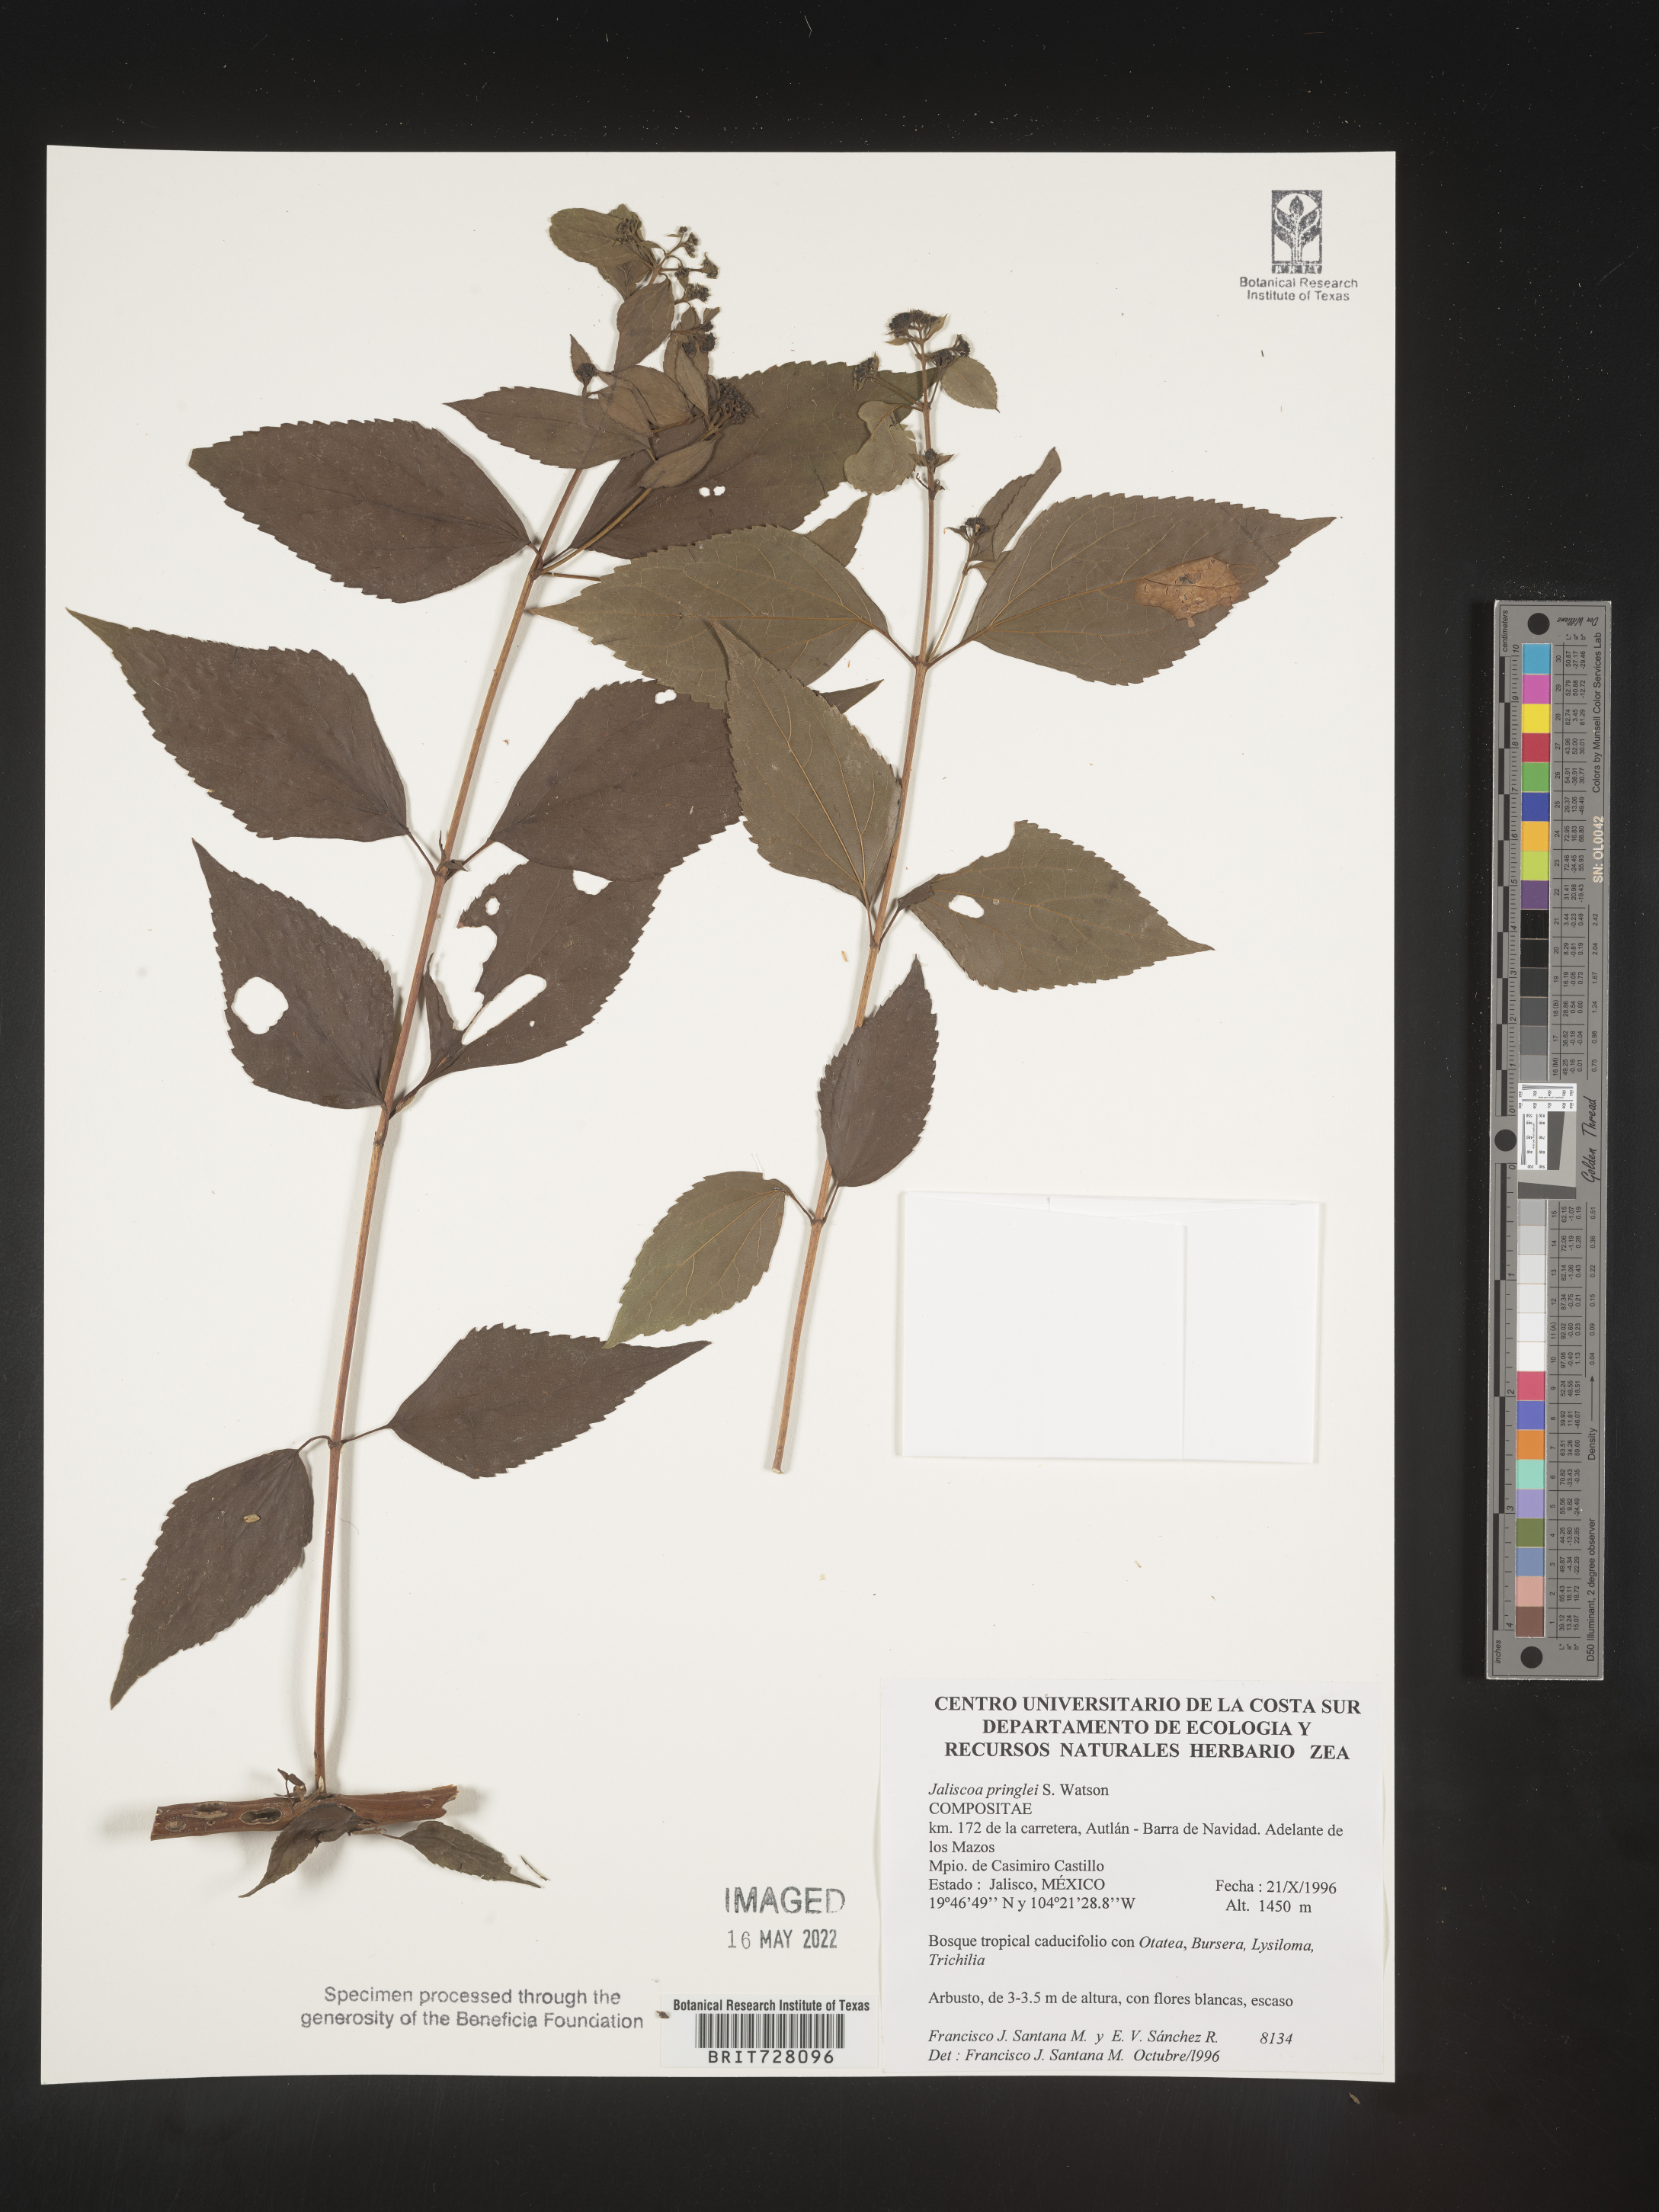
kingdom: Plantae
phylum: Tracheophyta
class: Magnoliopsida
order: Asterales
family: Asteraceae
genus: Jaliscoa
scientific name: Jaliscoa
